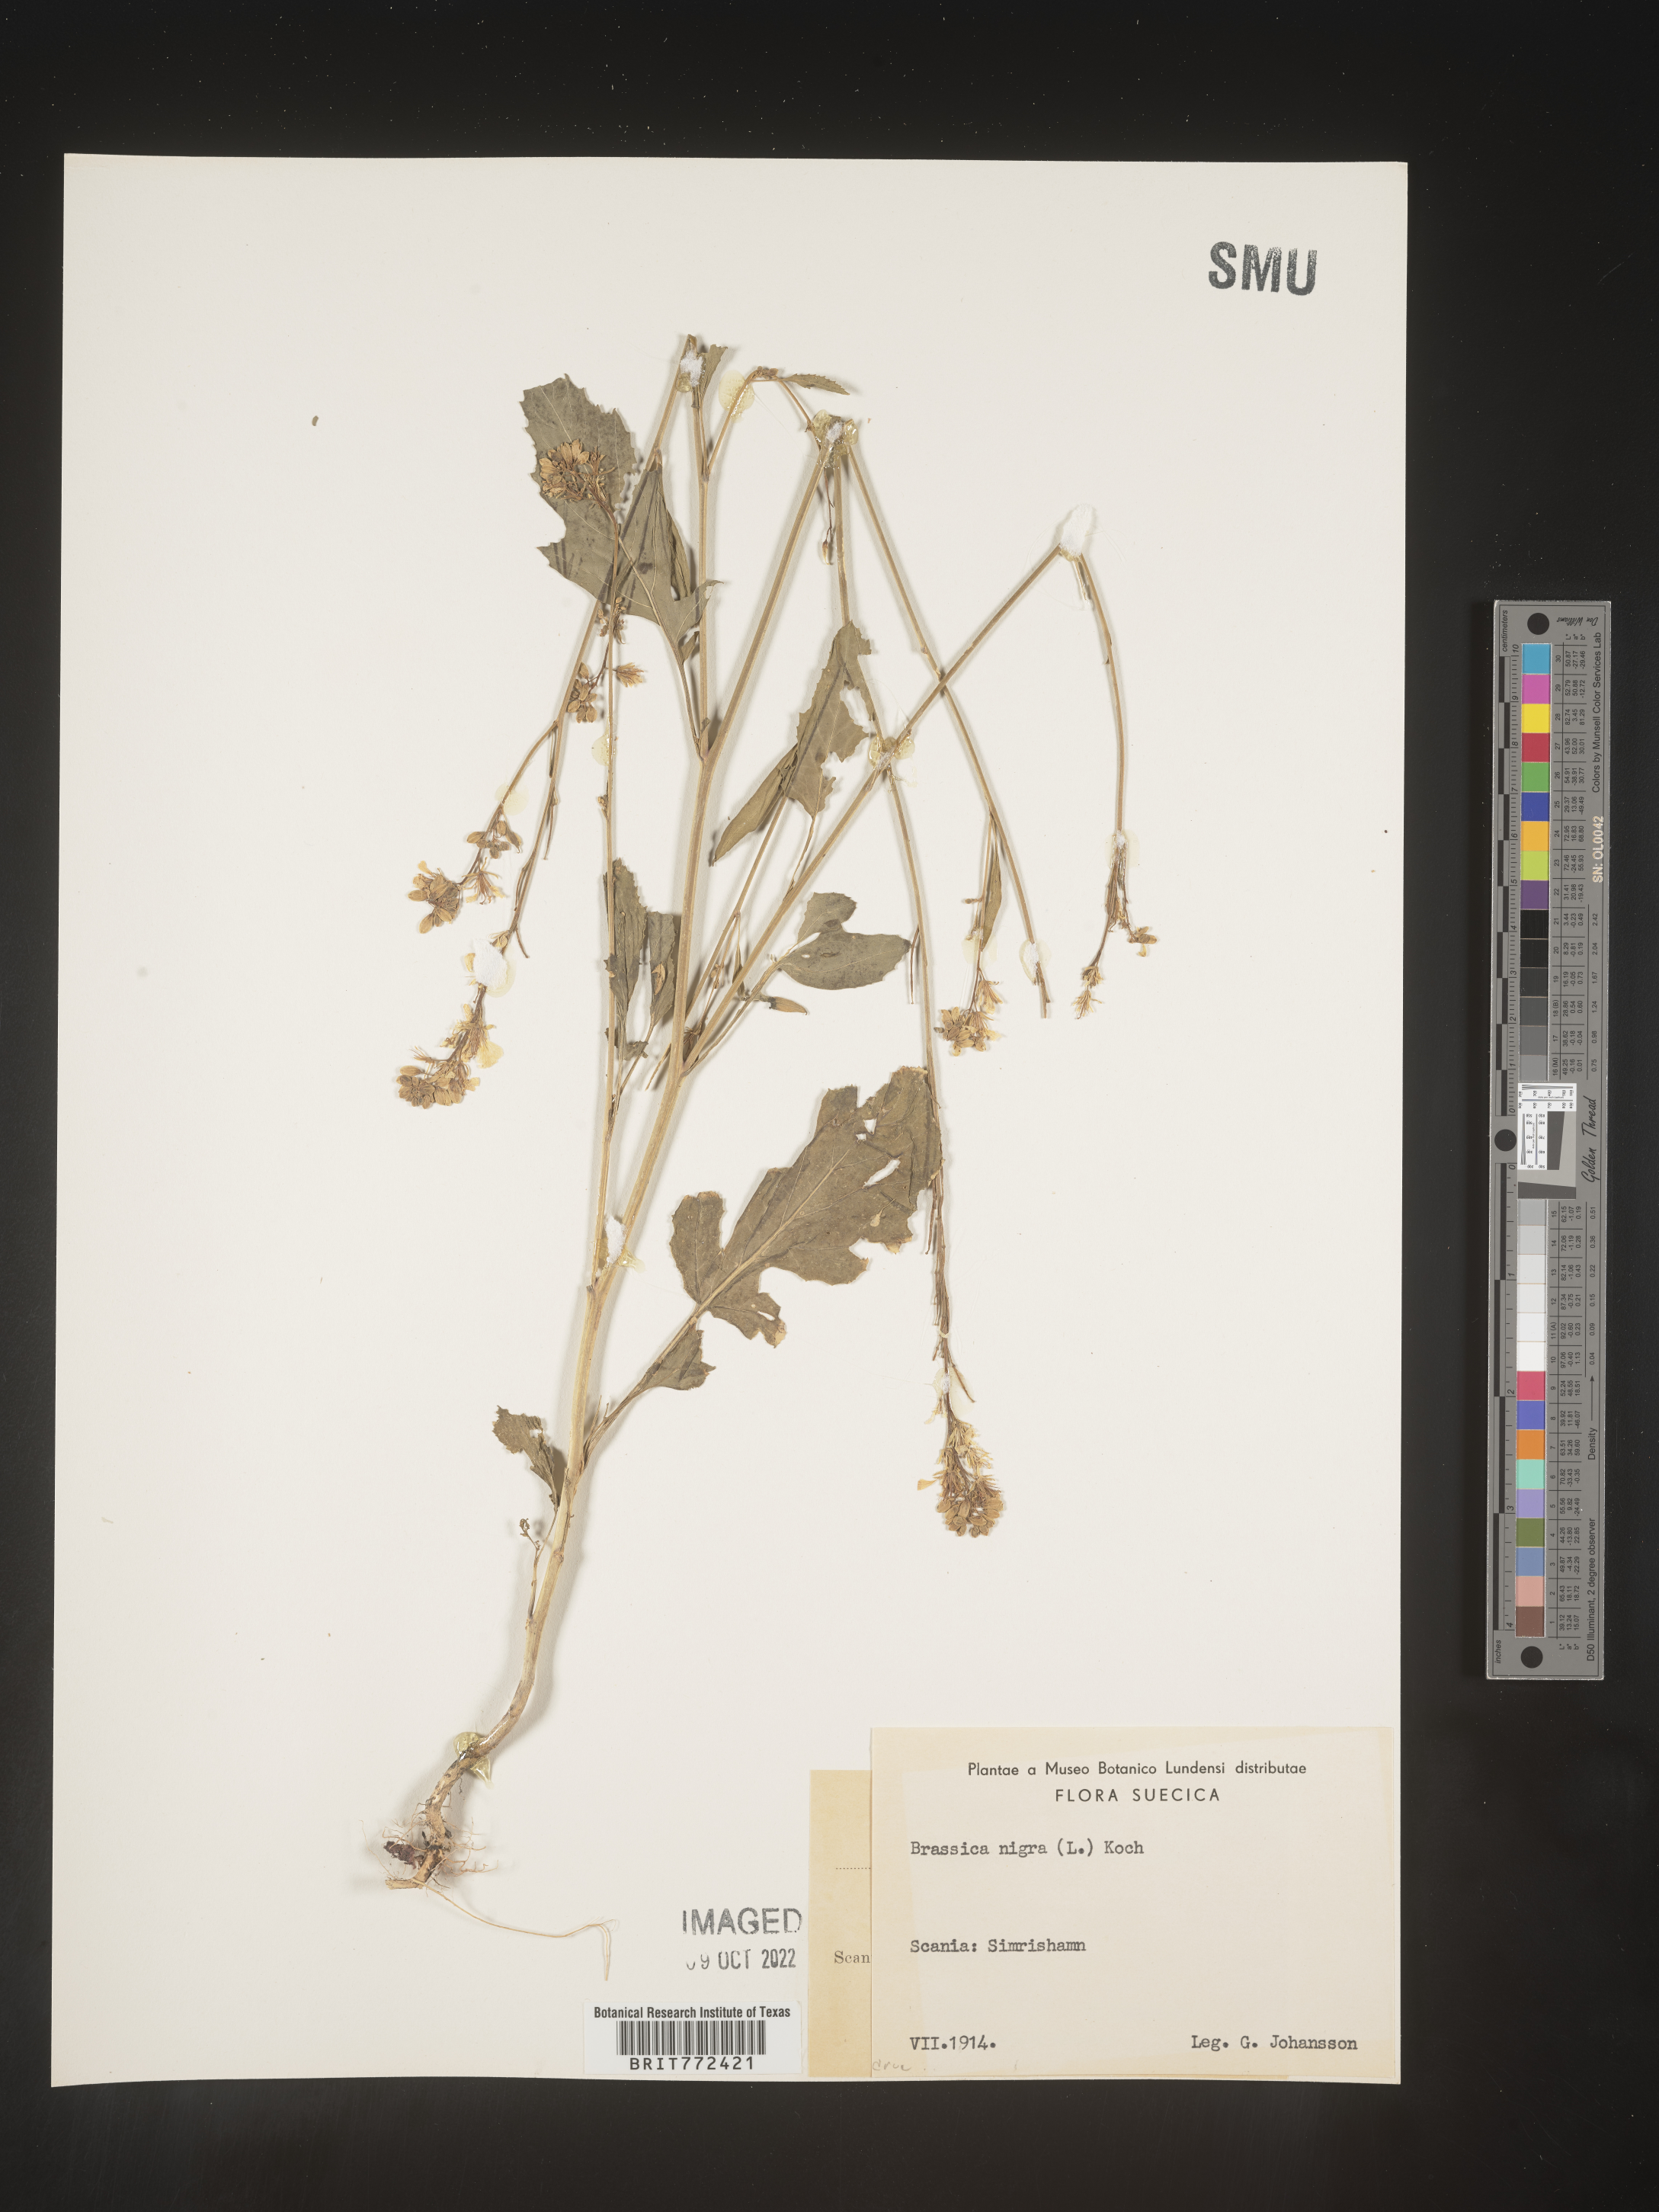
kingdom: Plantae
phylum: Tracheophyta
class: Magnoliopsida
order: Brassicales
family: Brassicaceae
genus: Brassica
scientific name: Brassica
